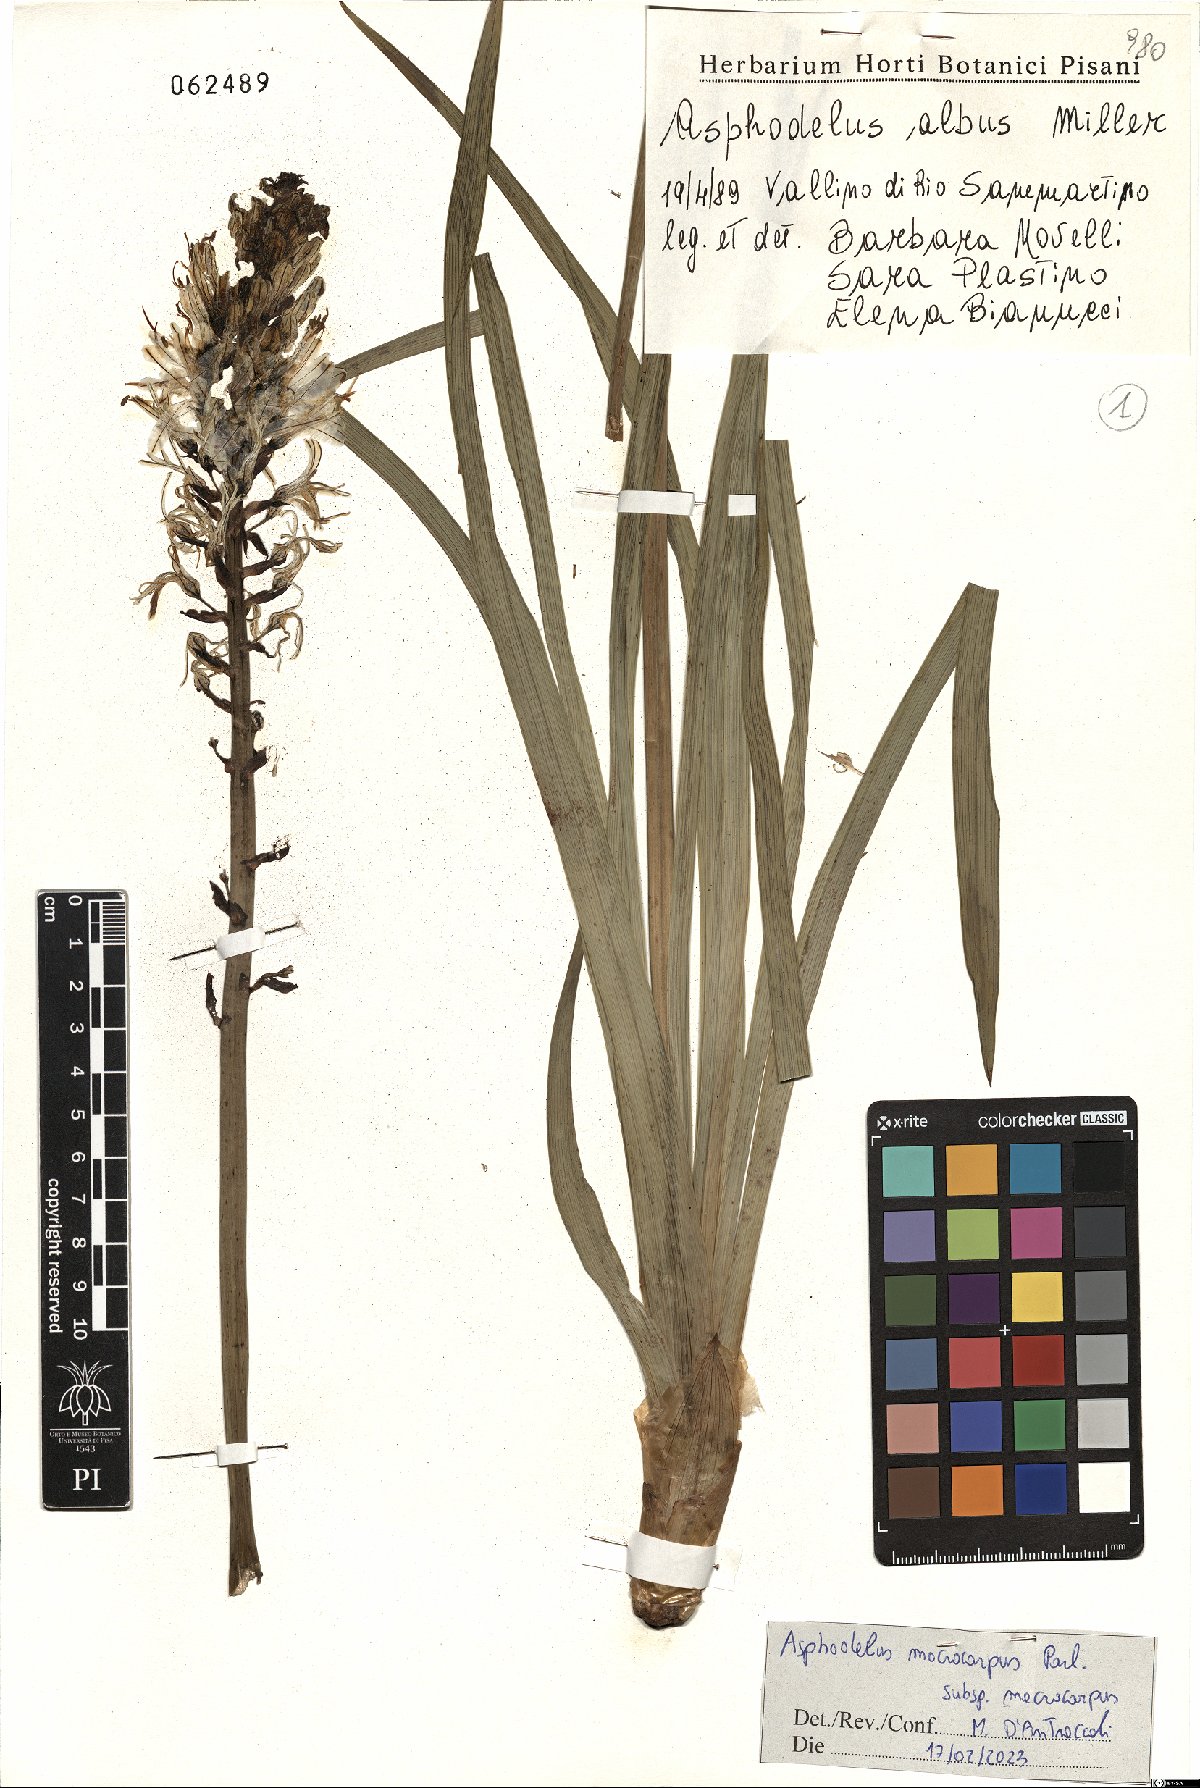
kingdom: Plantae
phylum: Tracheophyta
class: Liliopsida
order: Asparagales
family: Asphodelaceae
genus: Asphodelus
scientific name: Asphodelus macrocarpus
